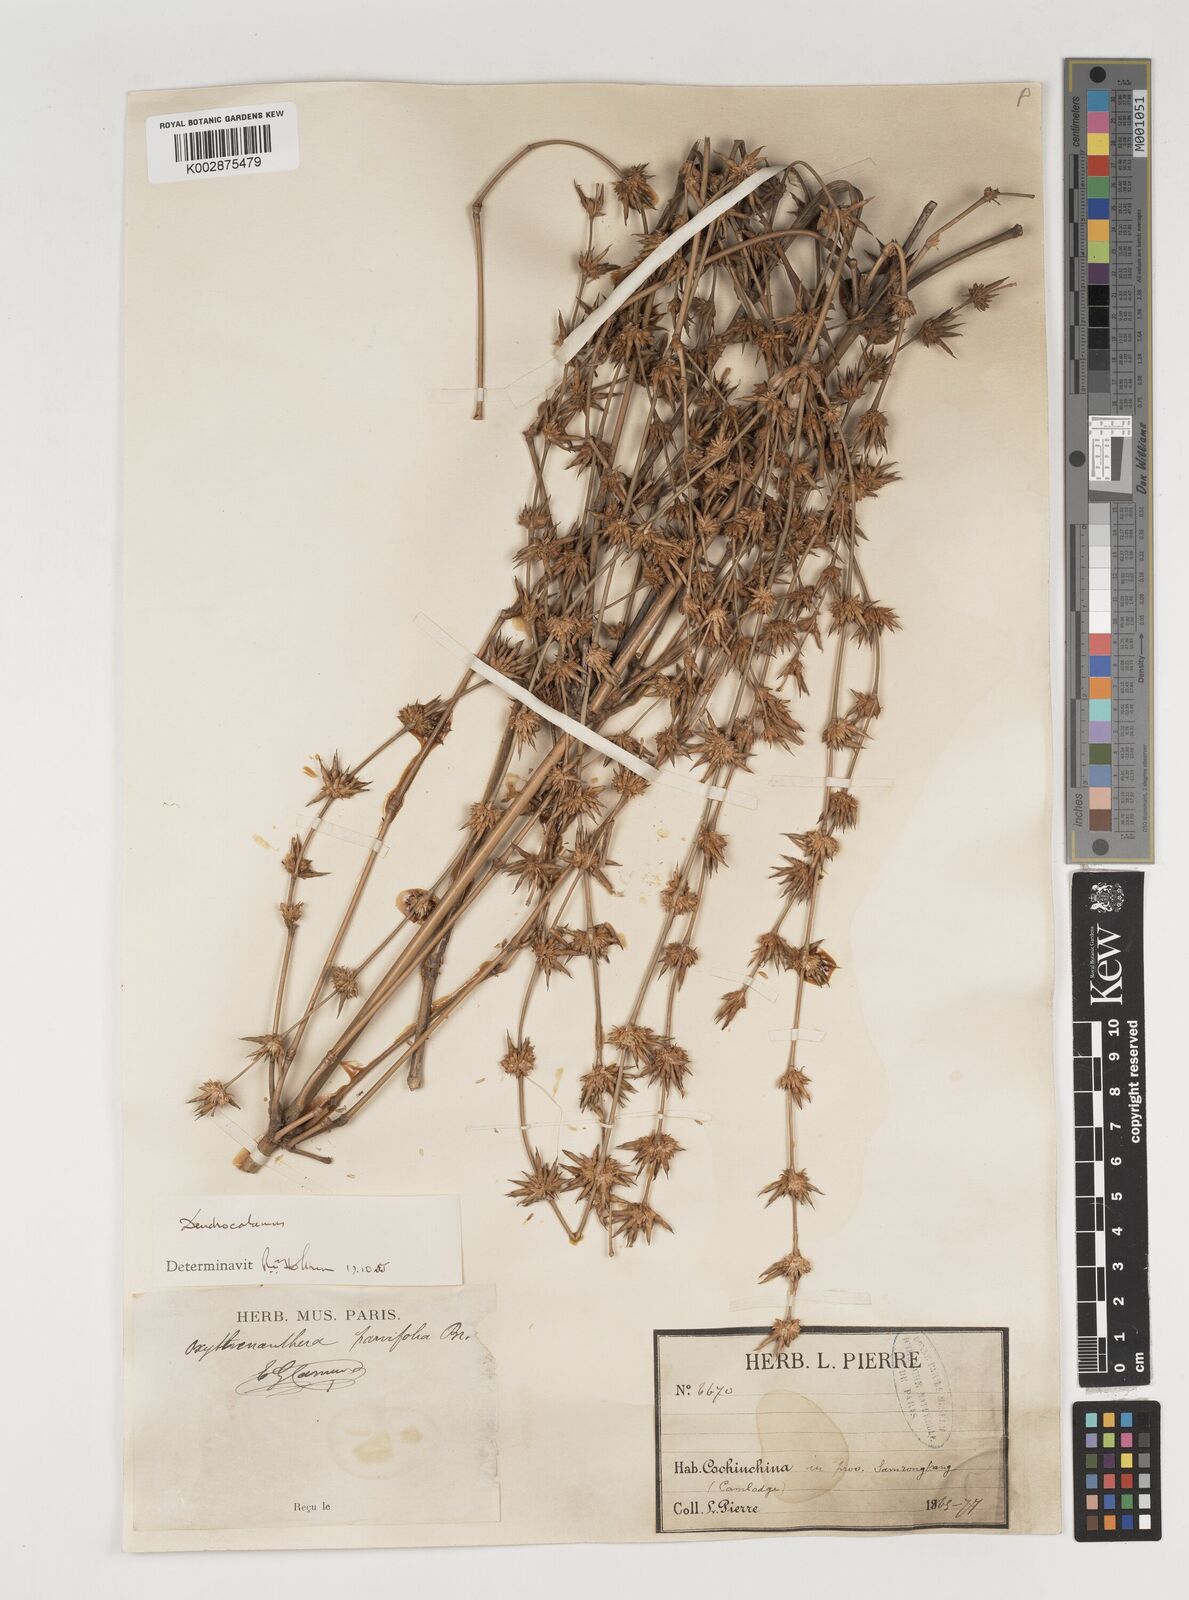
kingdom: Plantae
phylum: Tracheophyta
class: Liliopsida
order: Poales
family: Poaceae
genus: Dendrocalamus
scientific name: Dendrocalamus merrillianus
